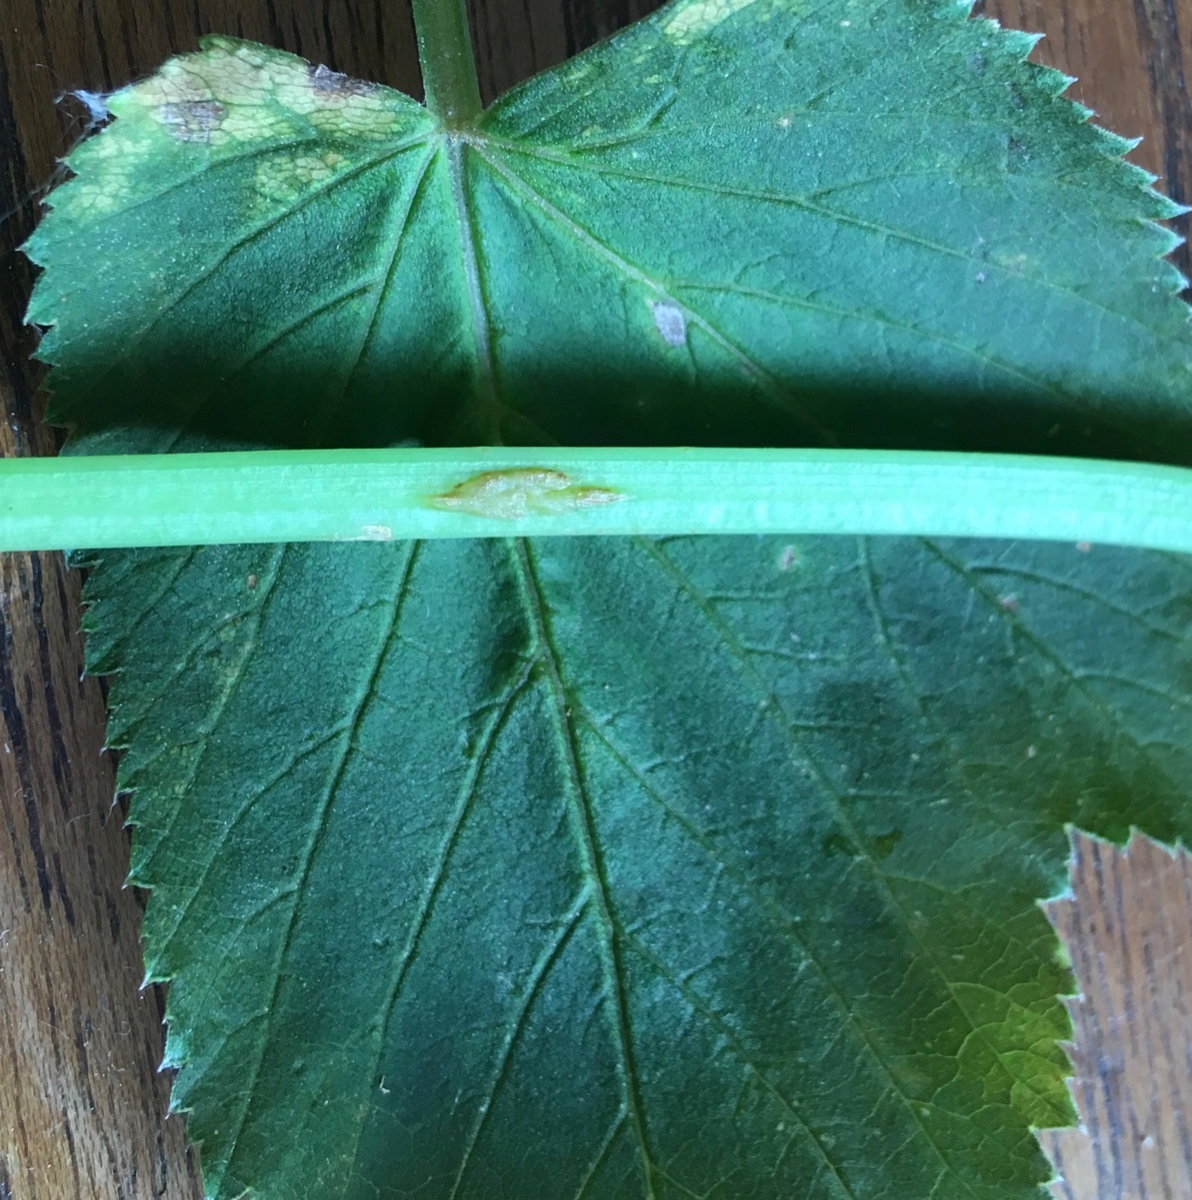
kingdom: Fungi
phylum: Ascomycota
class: Taphrinomycetes
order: Taphrinales
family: Taphrinaceae
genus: Protomyces
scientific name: Protomyces macrosporus
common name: skvalderkål-vablesæk
